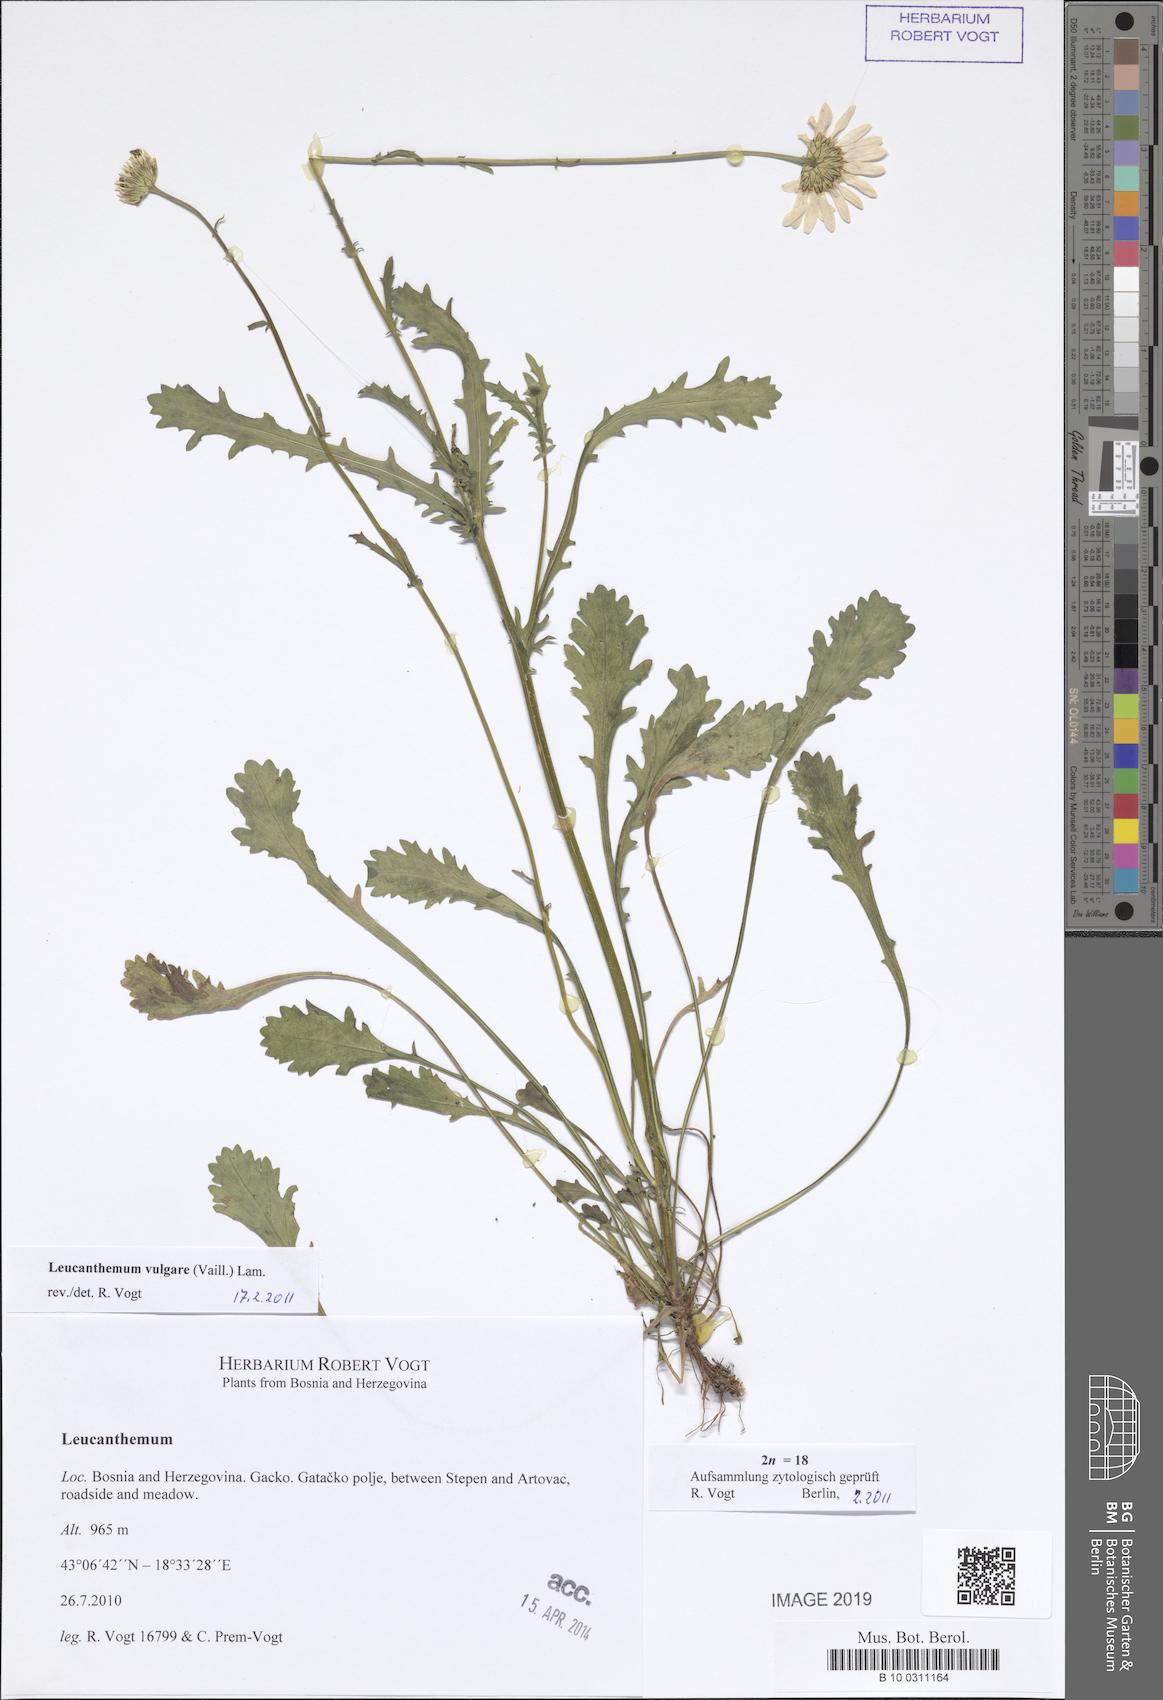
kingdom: Plantae
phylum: Tracheophyta
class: Magnoliopsida
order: Asterales
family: Asteraceae
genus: Leucanthemum
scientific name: Leucanthemum vulgare
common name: Oxeye daisy
